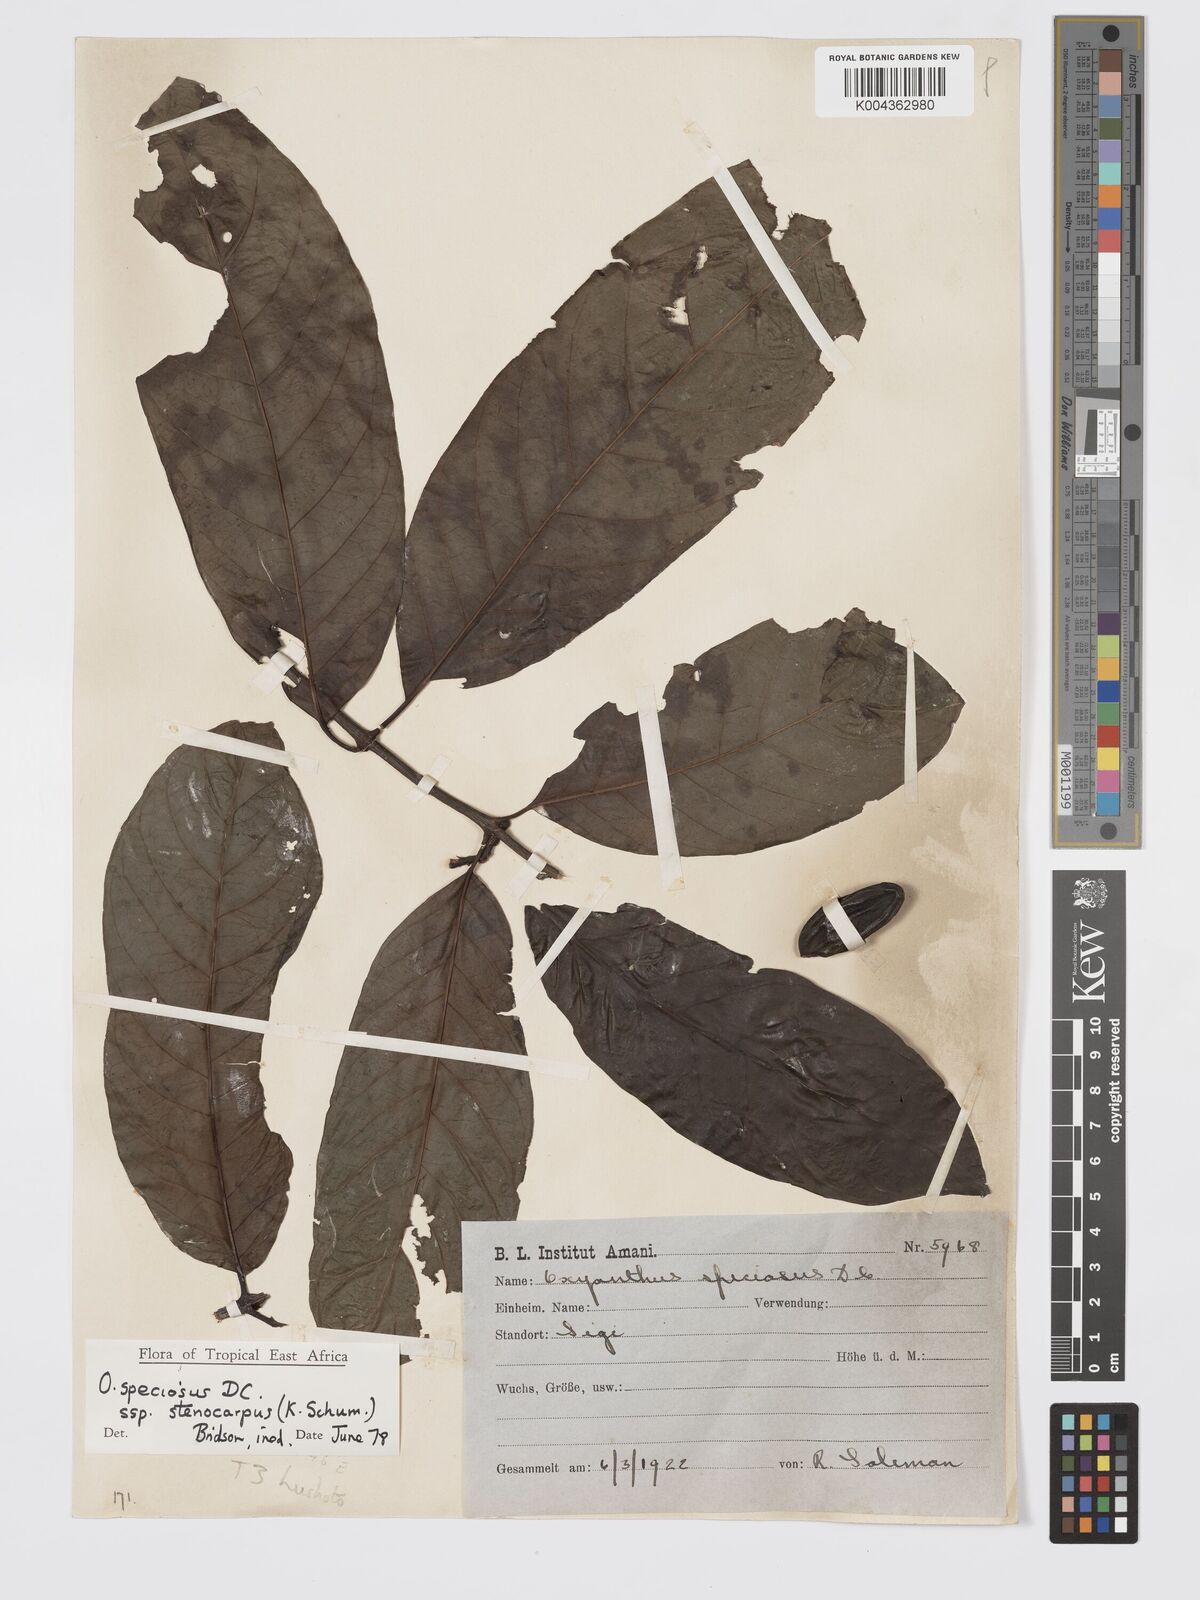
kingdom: Plantae
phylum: Tracheophyta
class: Magnoliopsida
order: Gentianales
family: Rubiaceae
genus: Oxyanthus
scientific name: Oxyanthus speciosus
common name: Whipstick loquat
